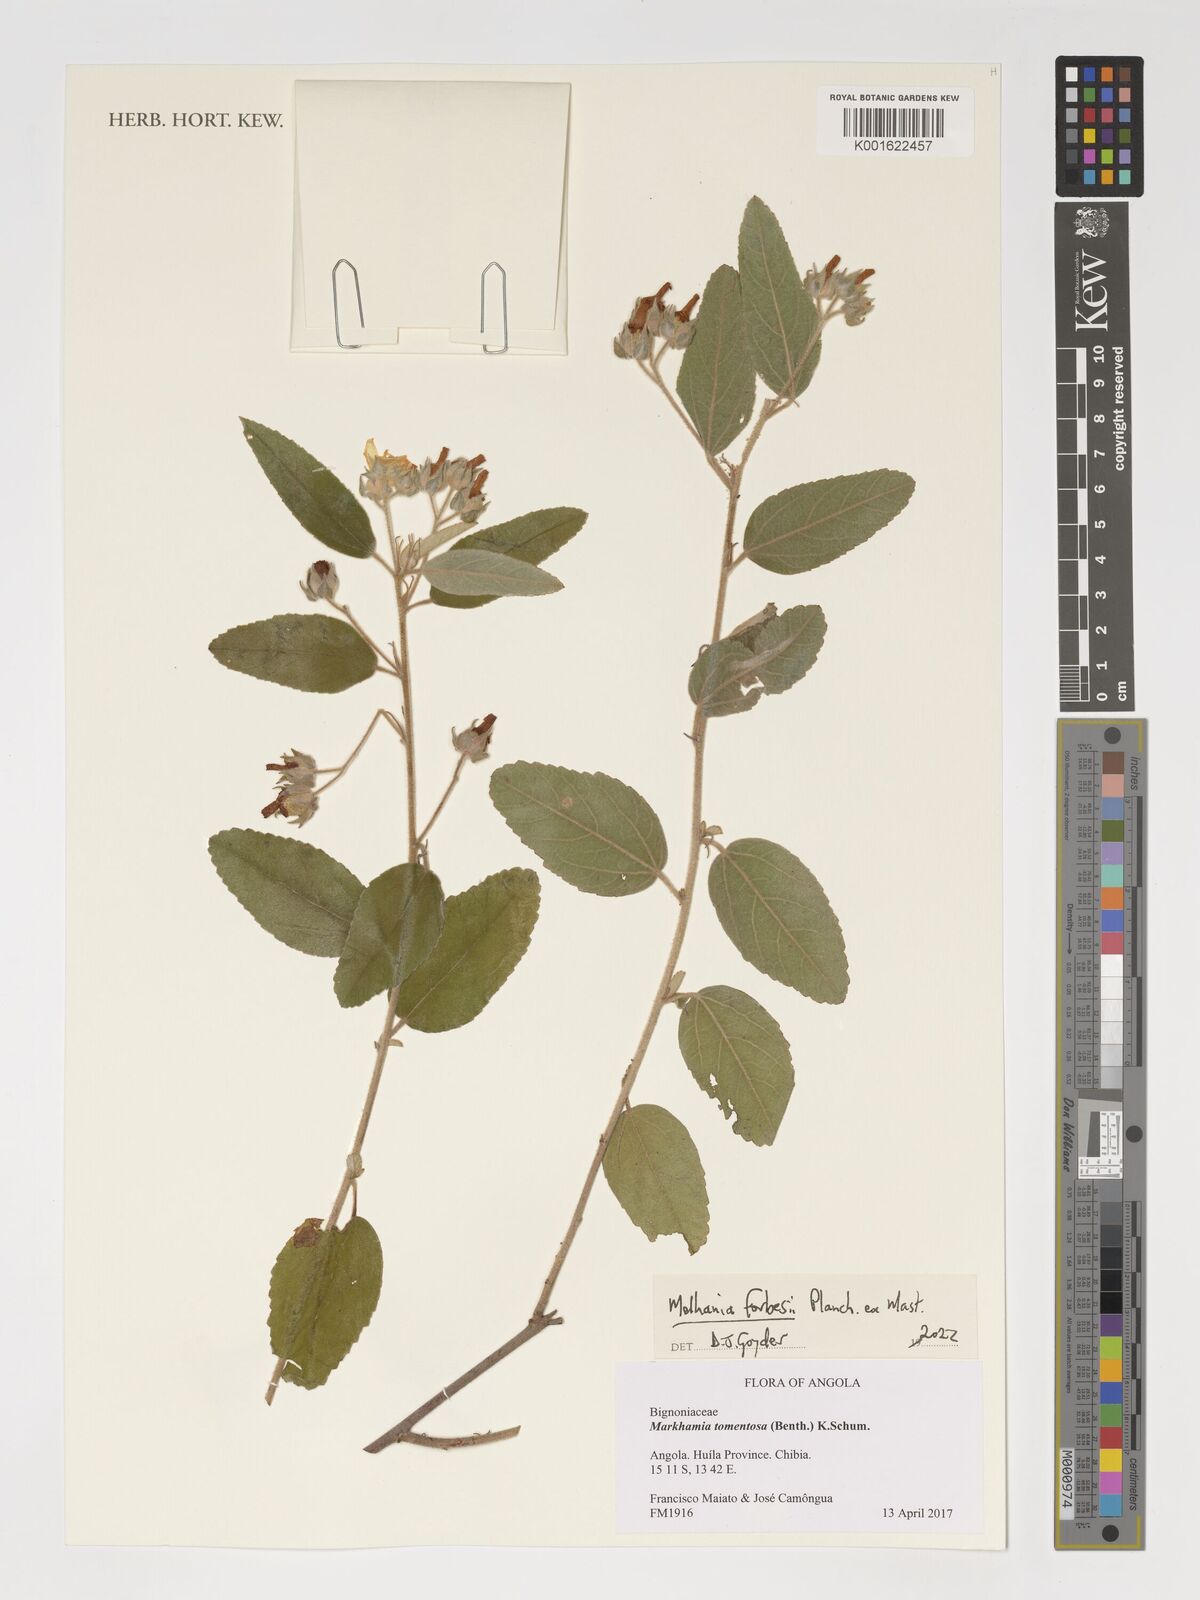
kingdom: Plantae
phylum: Tracheophyta
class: Magnoliopsida
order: Malvales
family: Malvaceae
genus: Melhania
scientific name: Melhania forbesii
